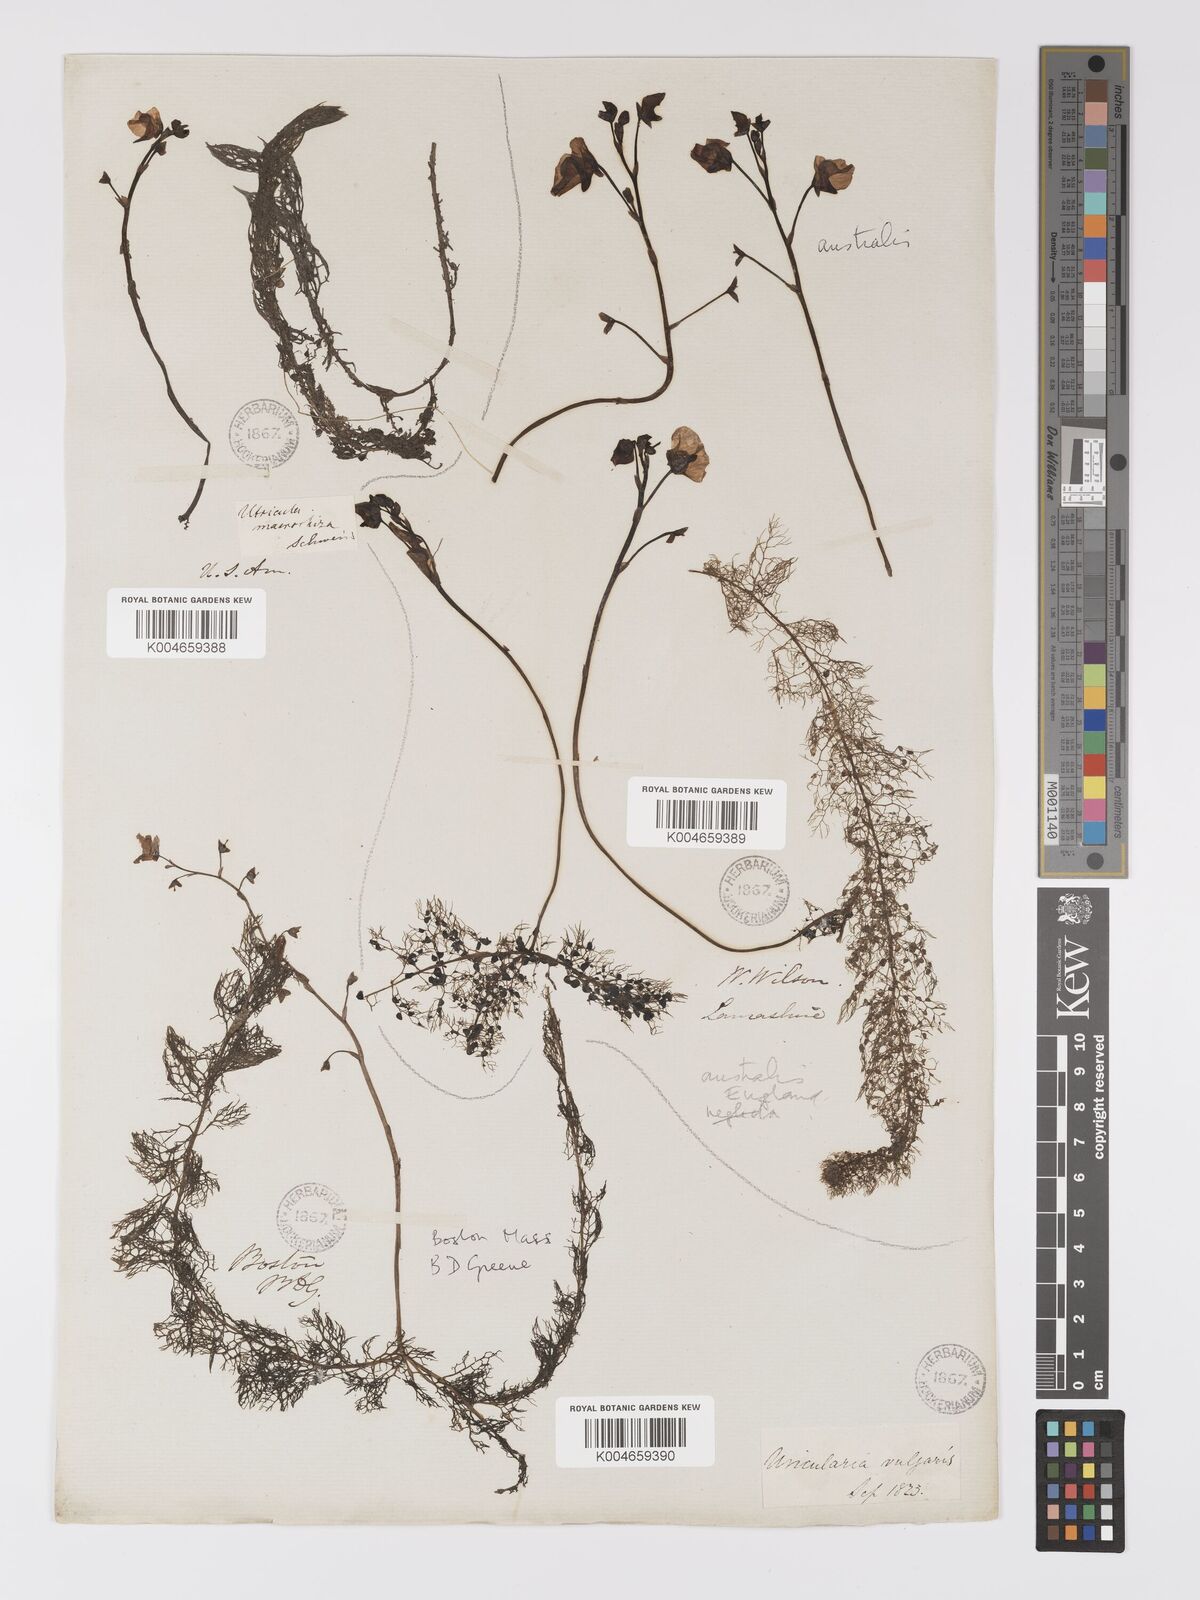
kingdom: Plantae
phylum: Tracheophyta
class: Magnoliopsida
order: Lamiales
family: Lentibulariaceae
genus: Utricularia
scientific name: Utricularia macrorhiza
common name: Common bladderwort
